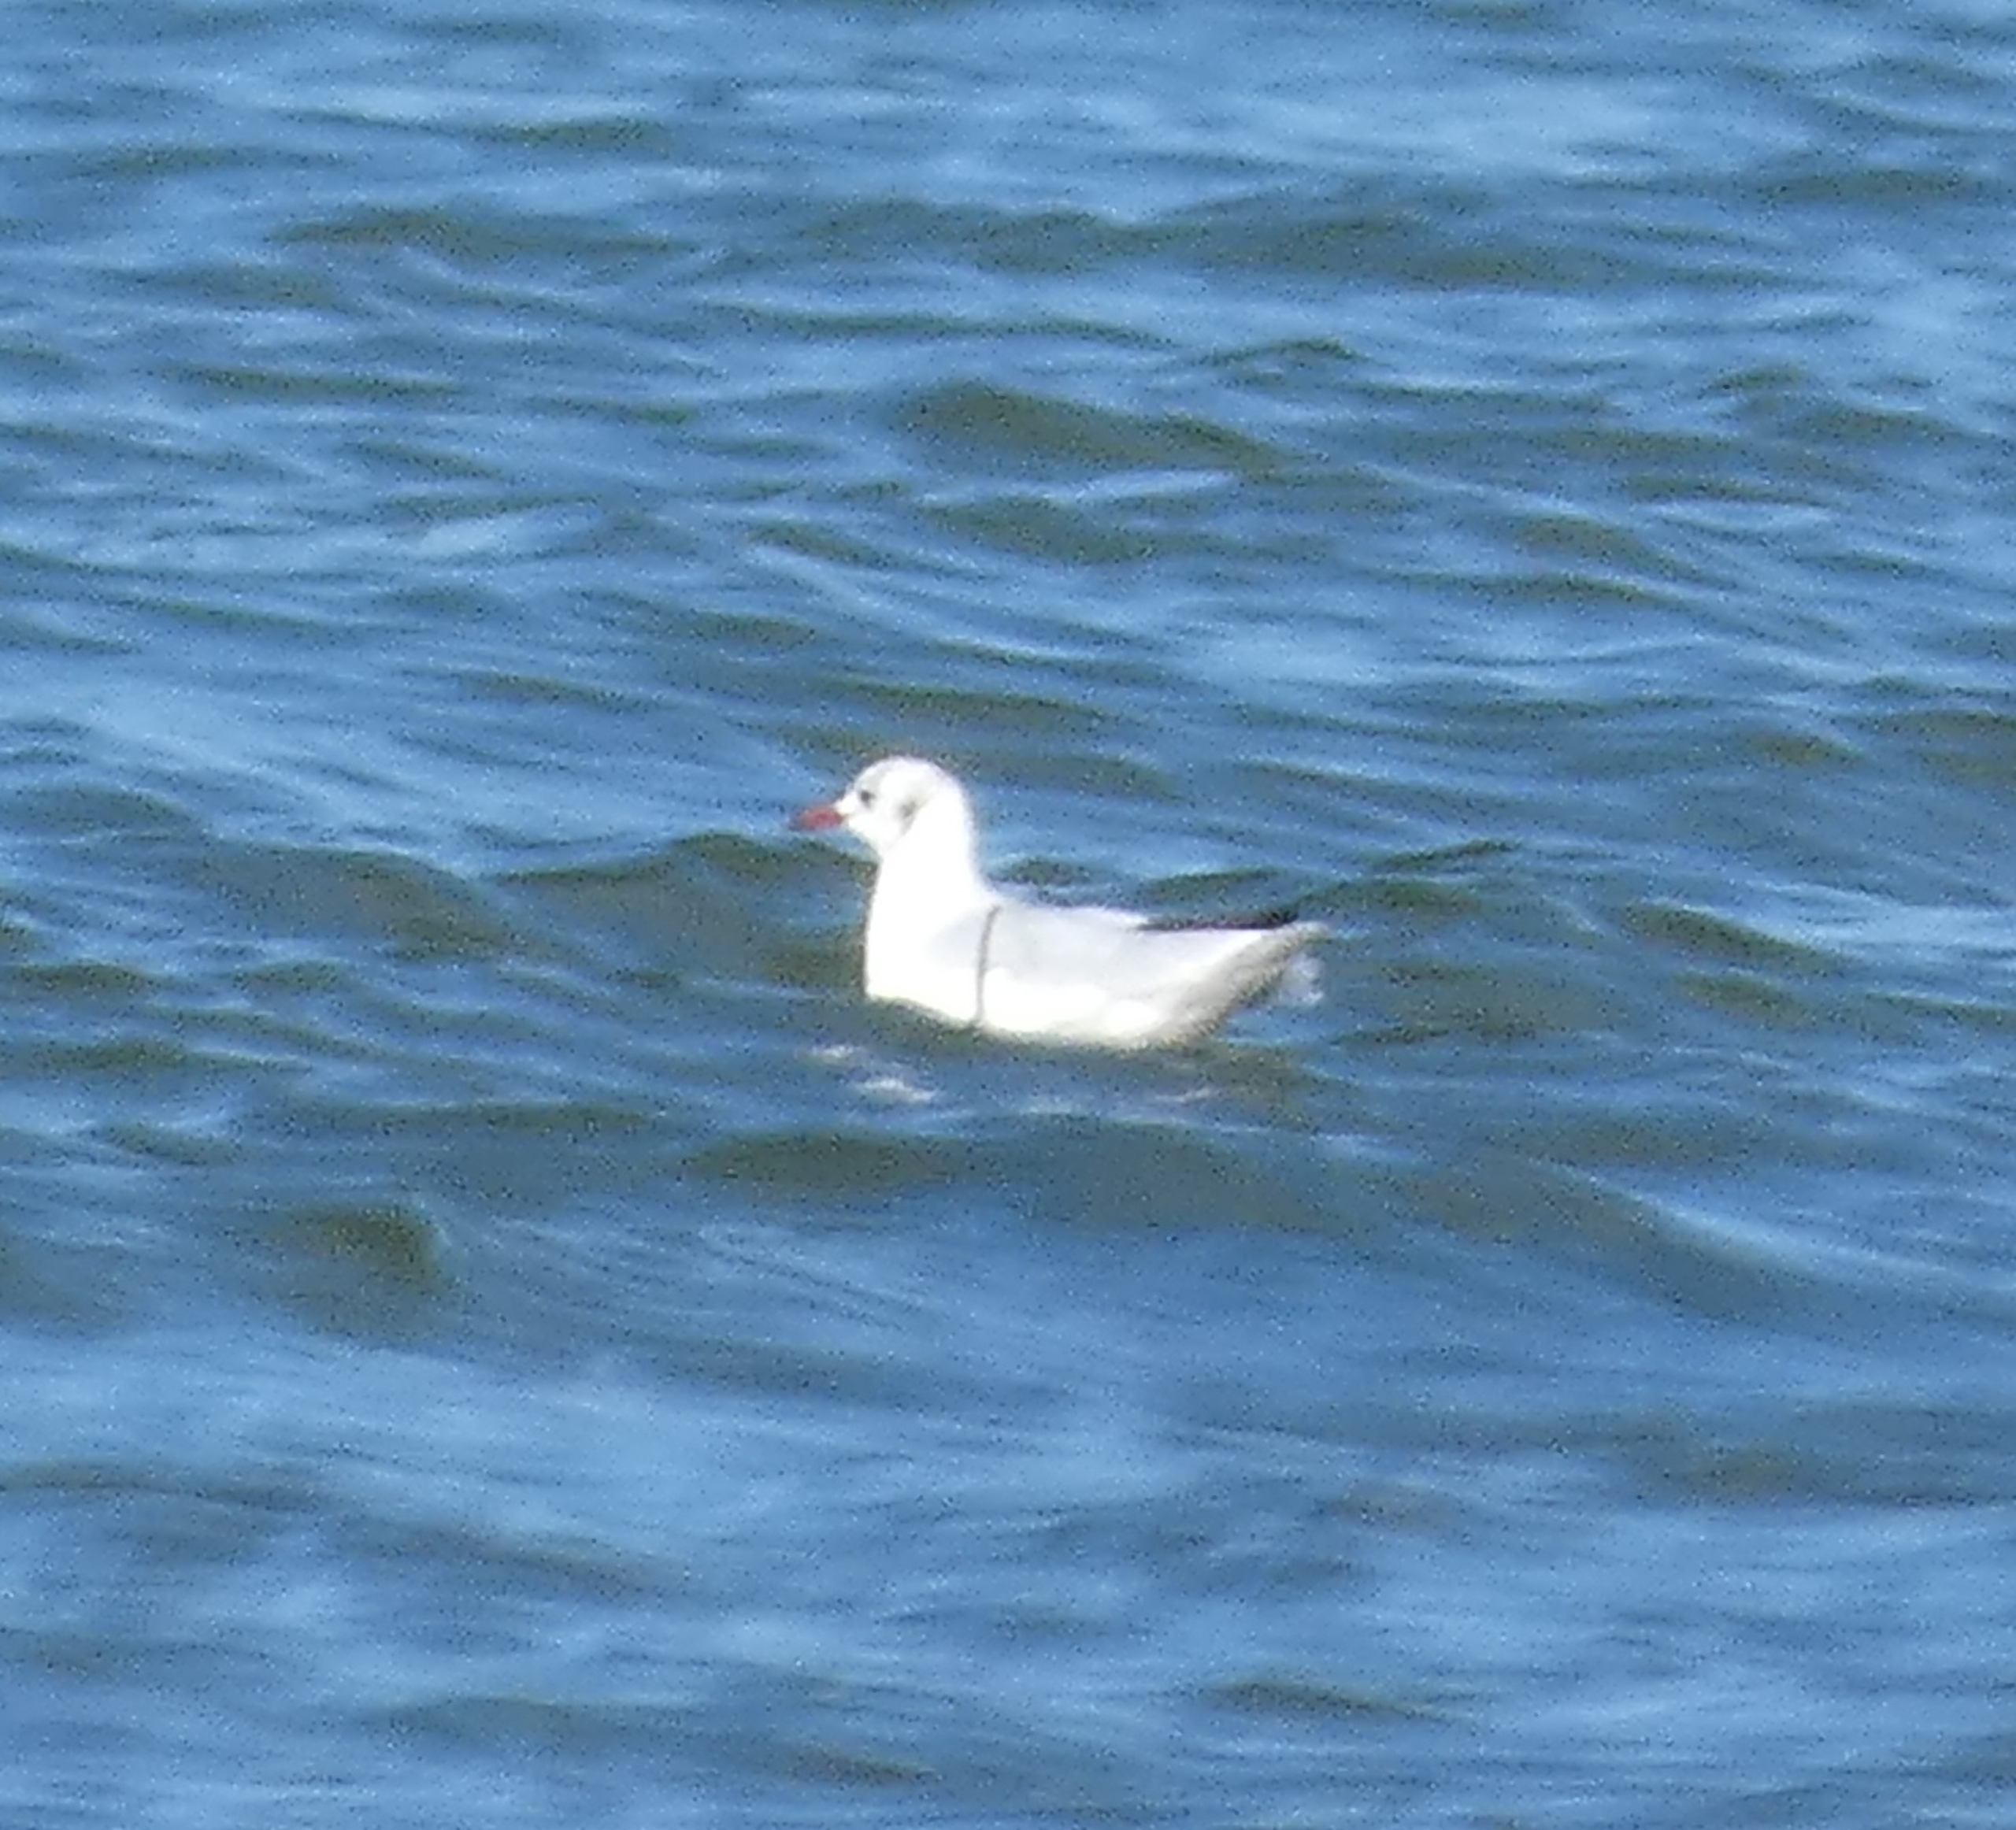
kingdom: Animalia
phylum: Chordata
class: Aves
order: Charadriiformes
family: Laridae
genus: Chroicocephalus
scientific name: Chroicocephalus ridibundus
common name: Hættemåge
